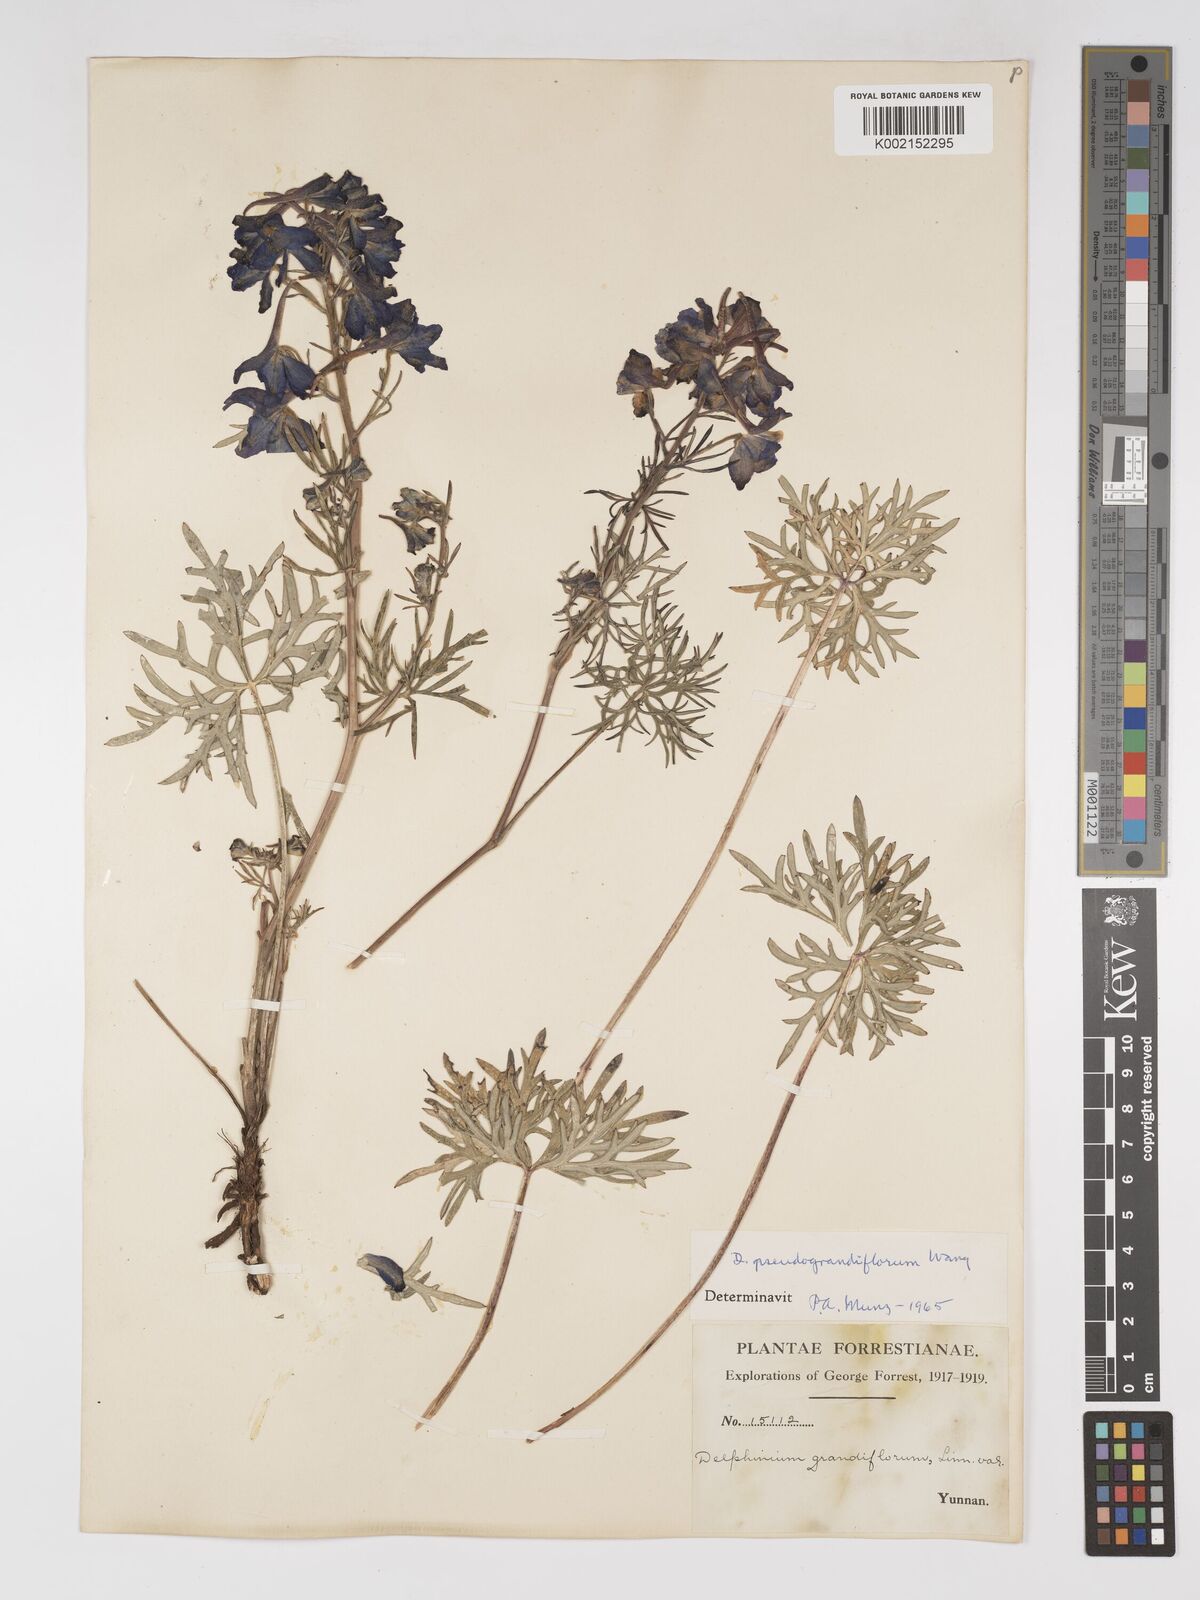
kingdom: Plantae
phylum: Tracheophyta
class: Magnoliopsida
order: Ranunculales
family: Ranunculaceae
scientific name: Ranunculaceae
